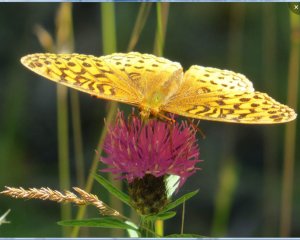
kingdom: Animalia
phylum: Arthropoda
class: Insecta
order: Lepidoptera
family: Nymphalidae
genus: Speyeria
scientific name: Speyeria cybele
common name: Great Spangled Fritillary
